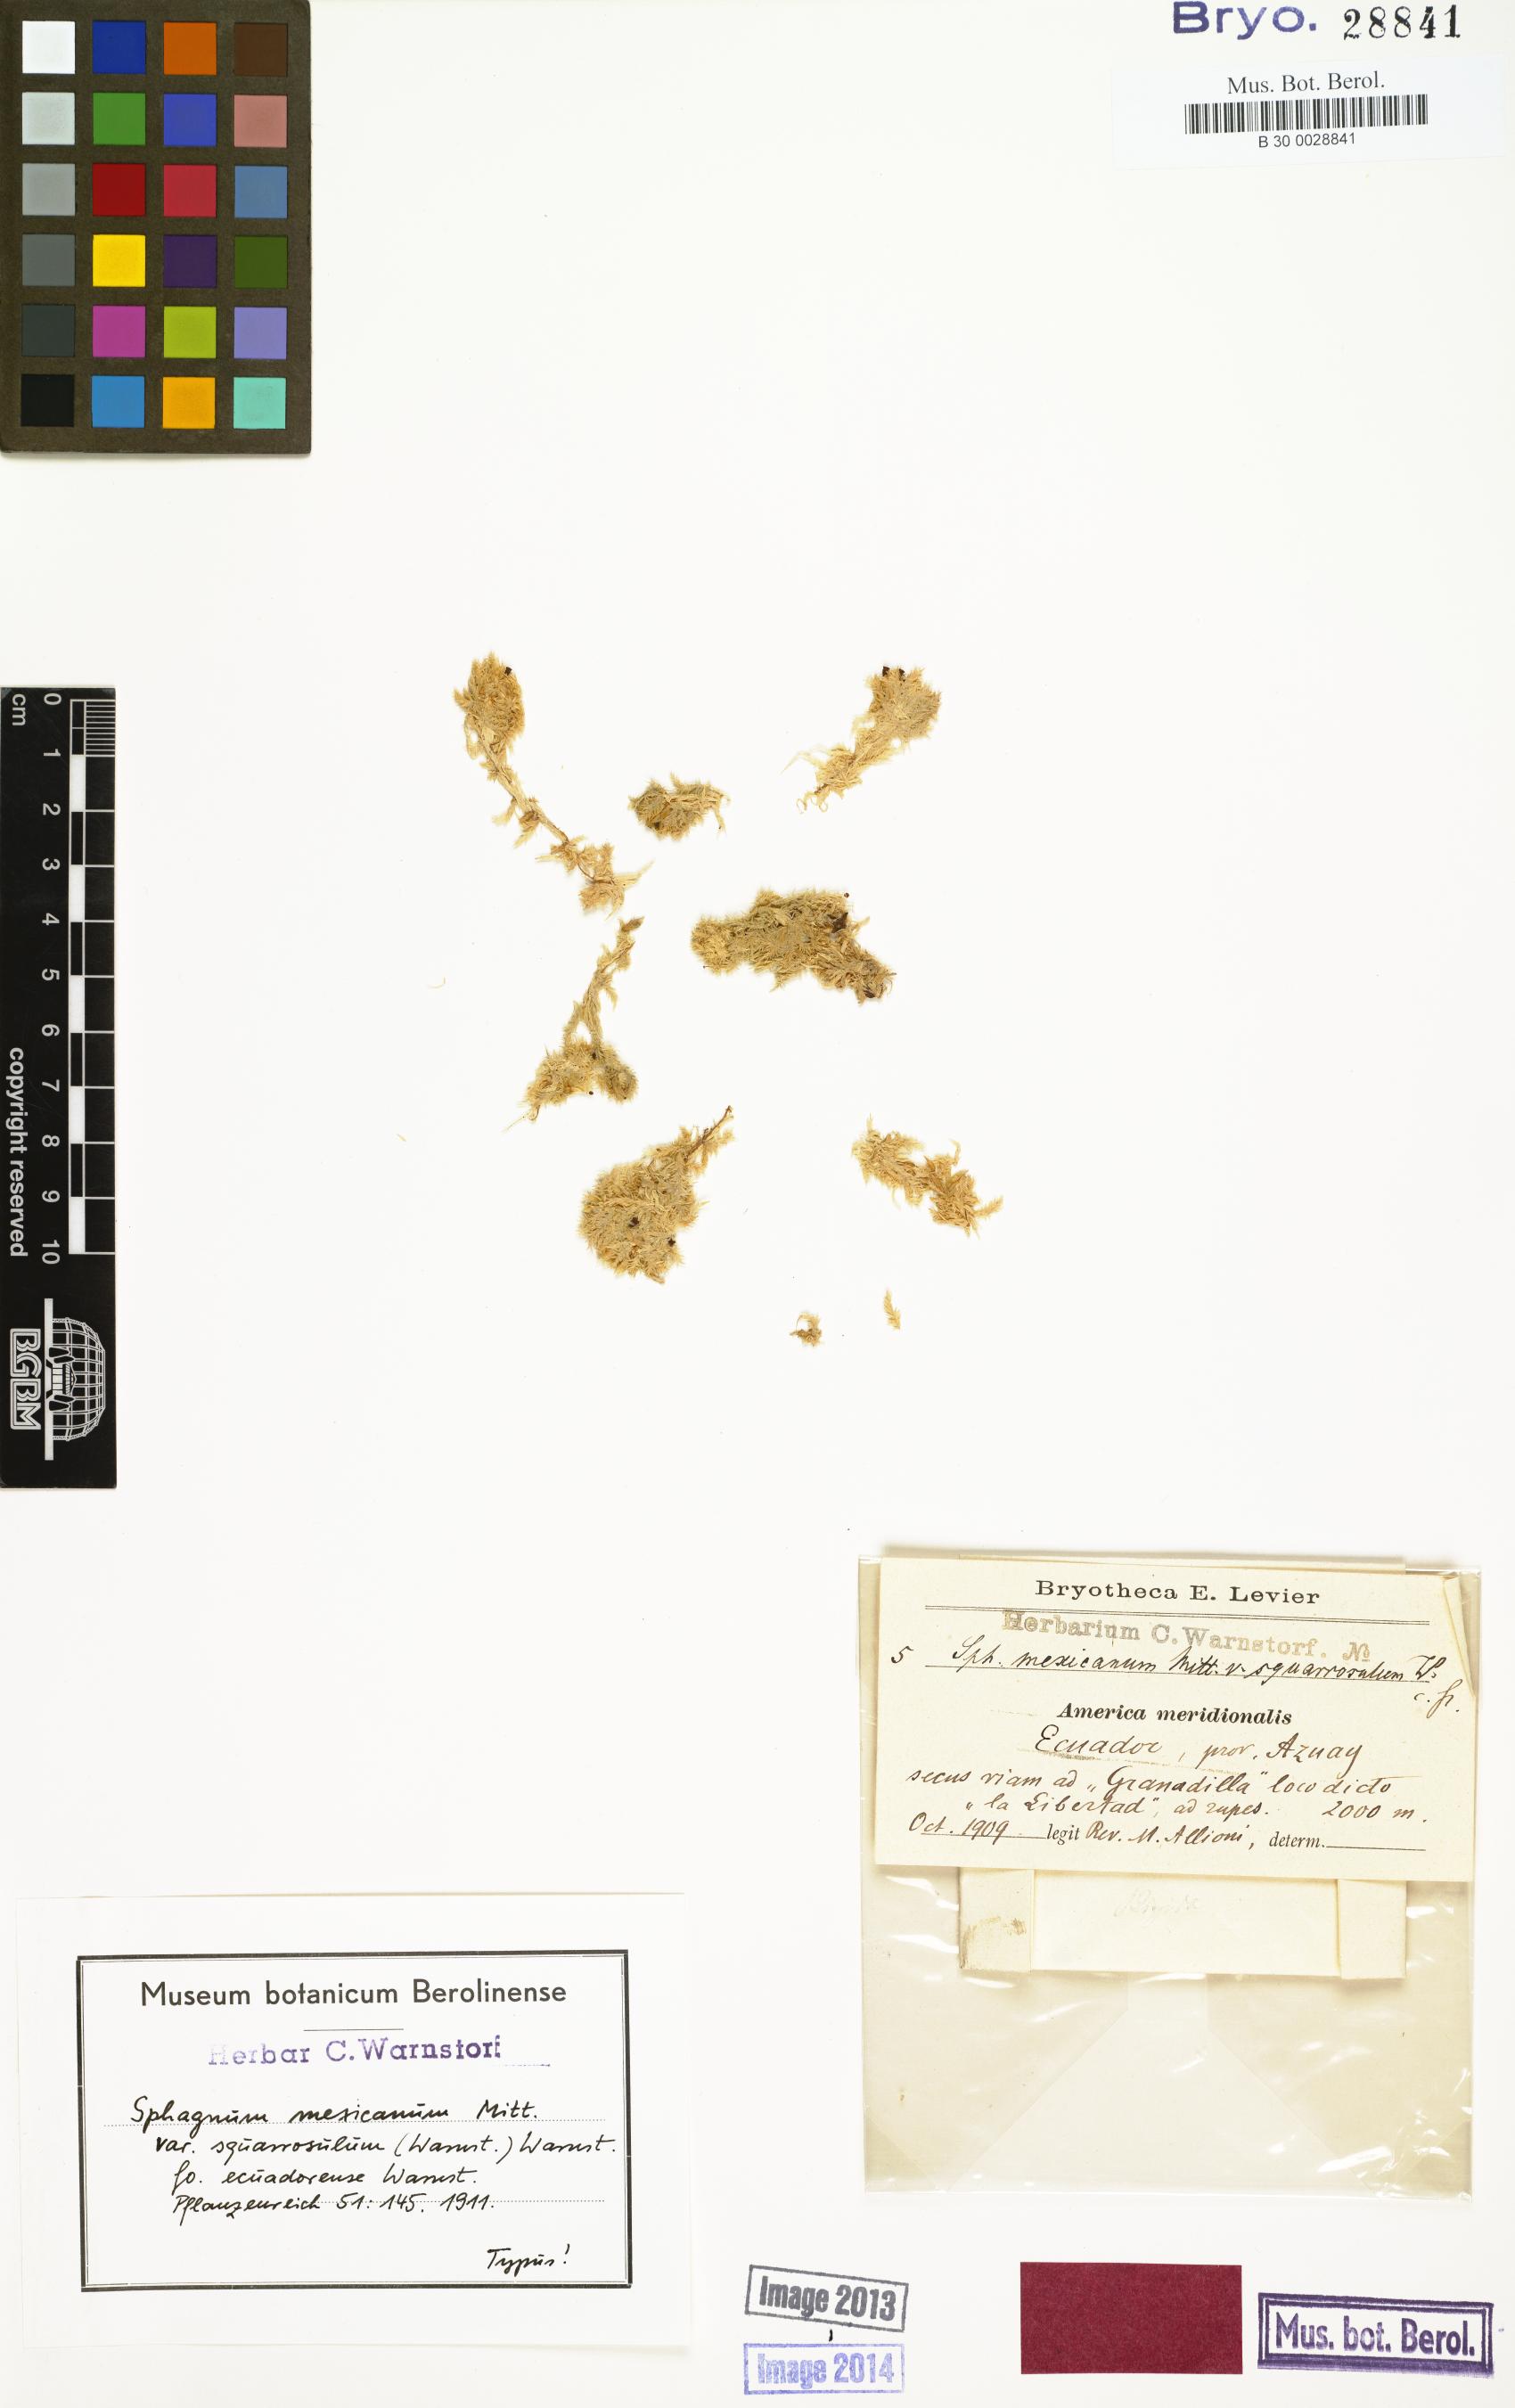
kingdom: Plantae
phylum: Bryophyta
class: Sphagnopsida
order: Sphagnales
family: Sphagnaceae
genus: Sphagnum
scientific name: Sphagnum strictum
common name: Pale bog-moss
